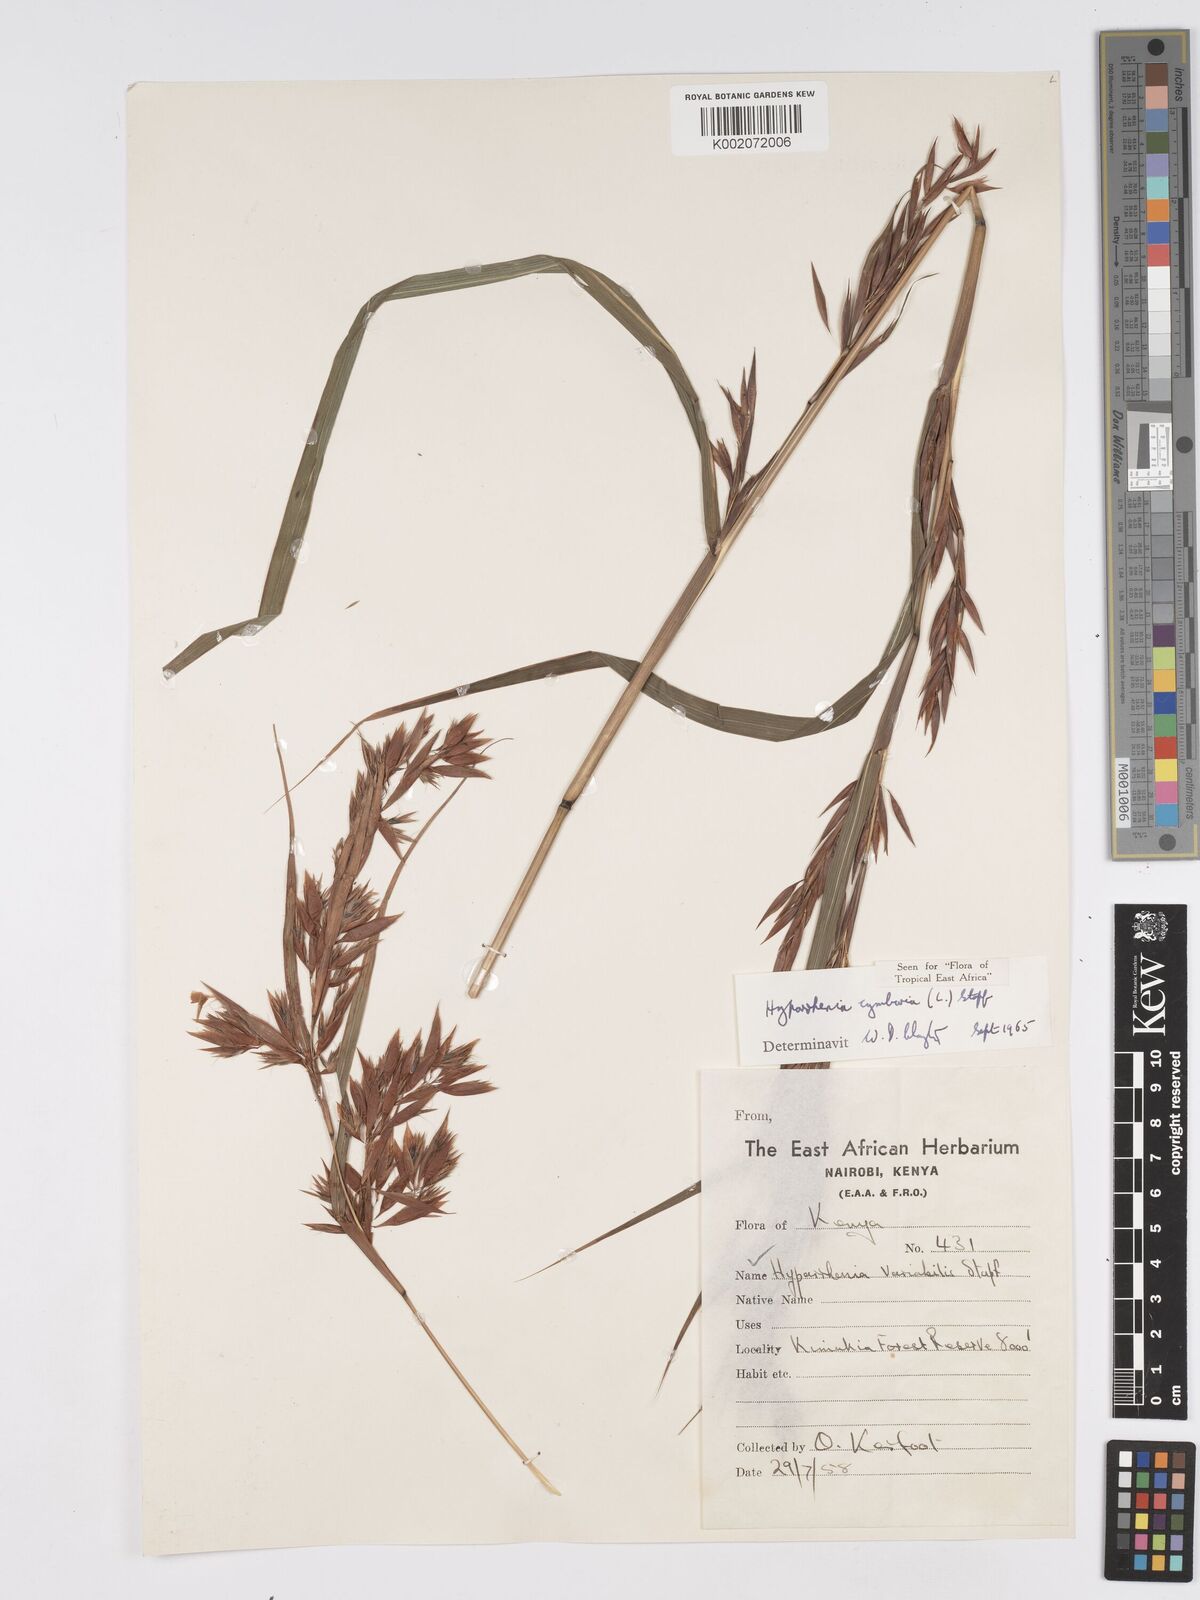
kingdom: Plantae
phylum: Tracheophyta
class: Liliopsida
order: Poales
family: Poaceae
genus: Hyparrhenia
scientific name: Hyparrhenia cymbaria
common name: Boat thatching grass
